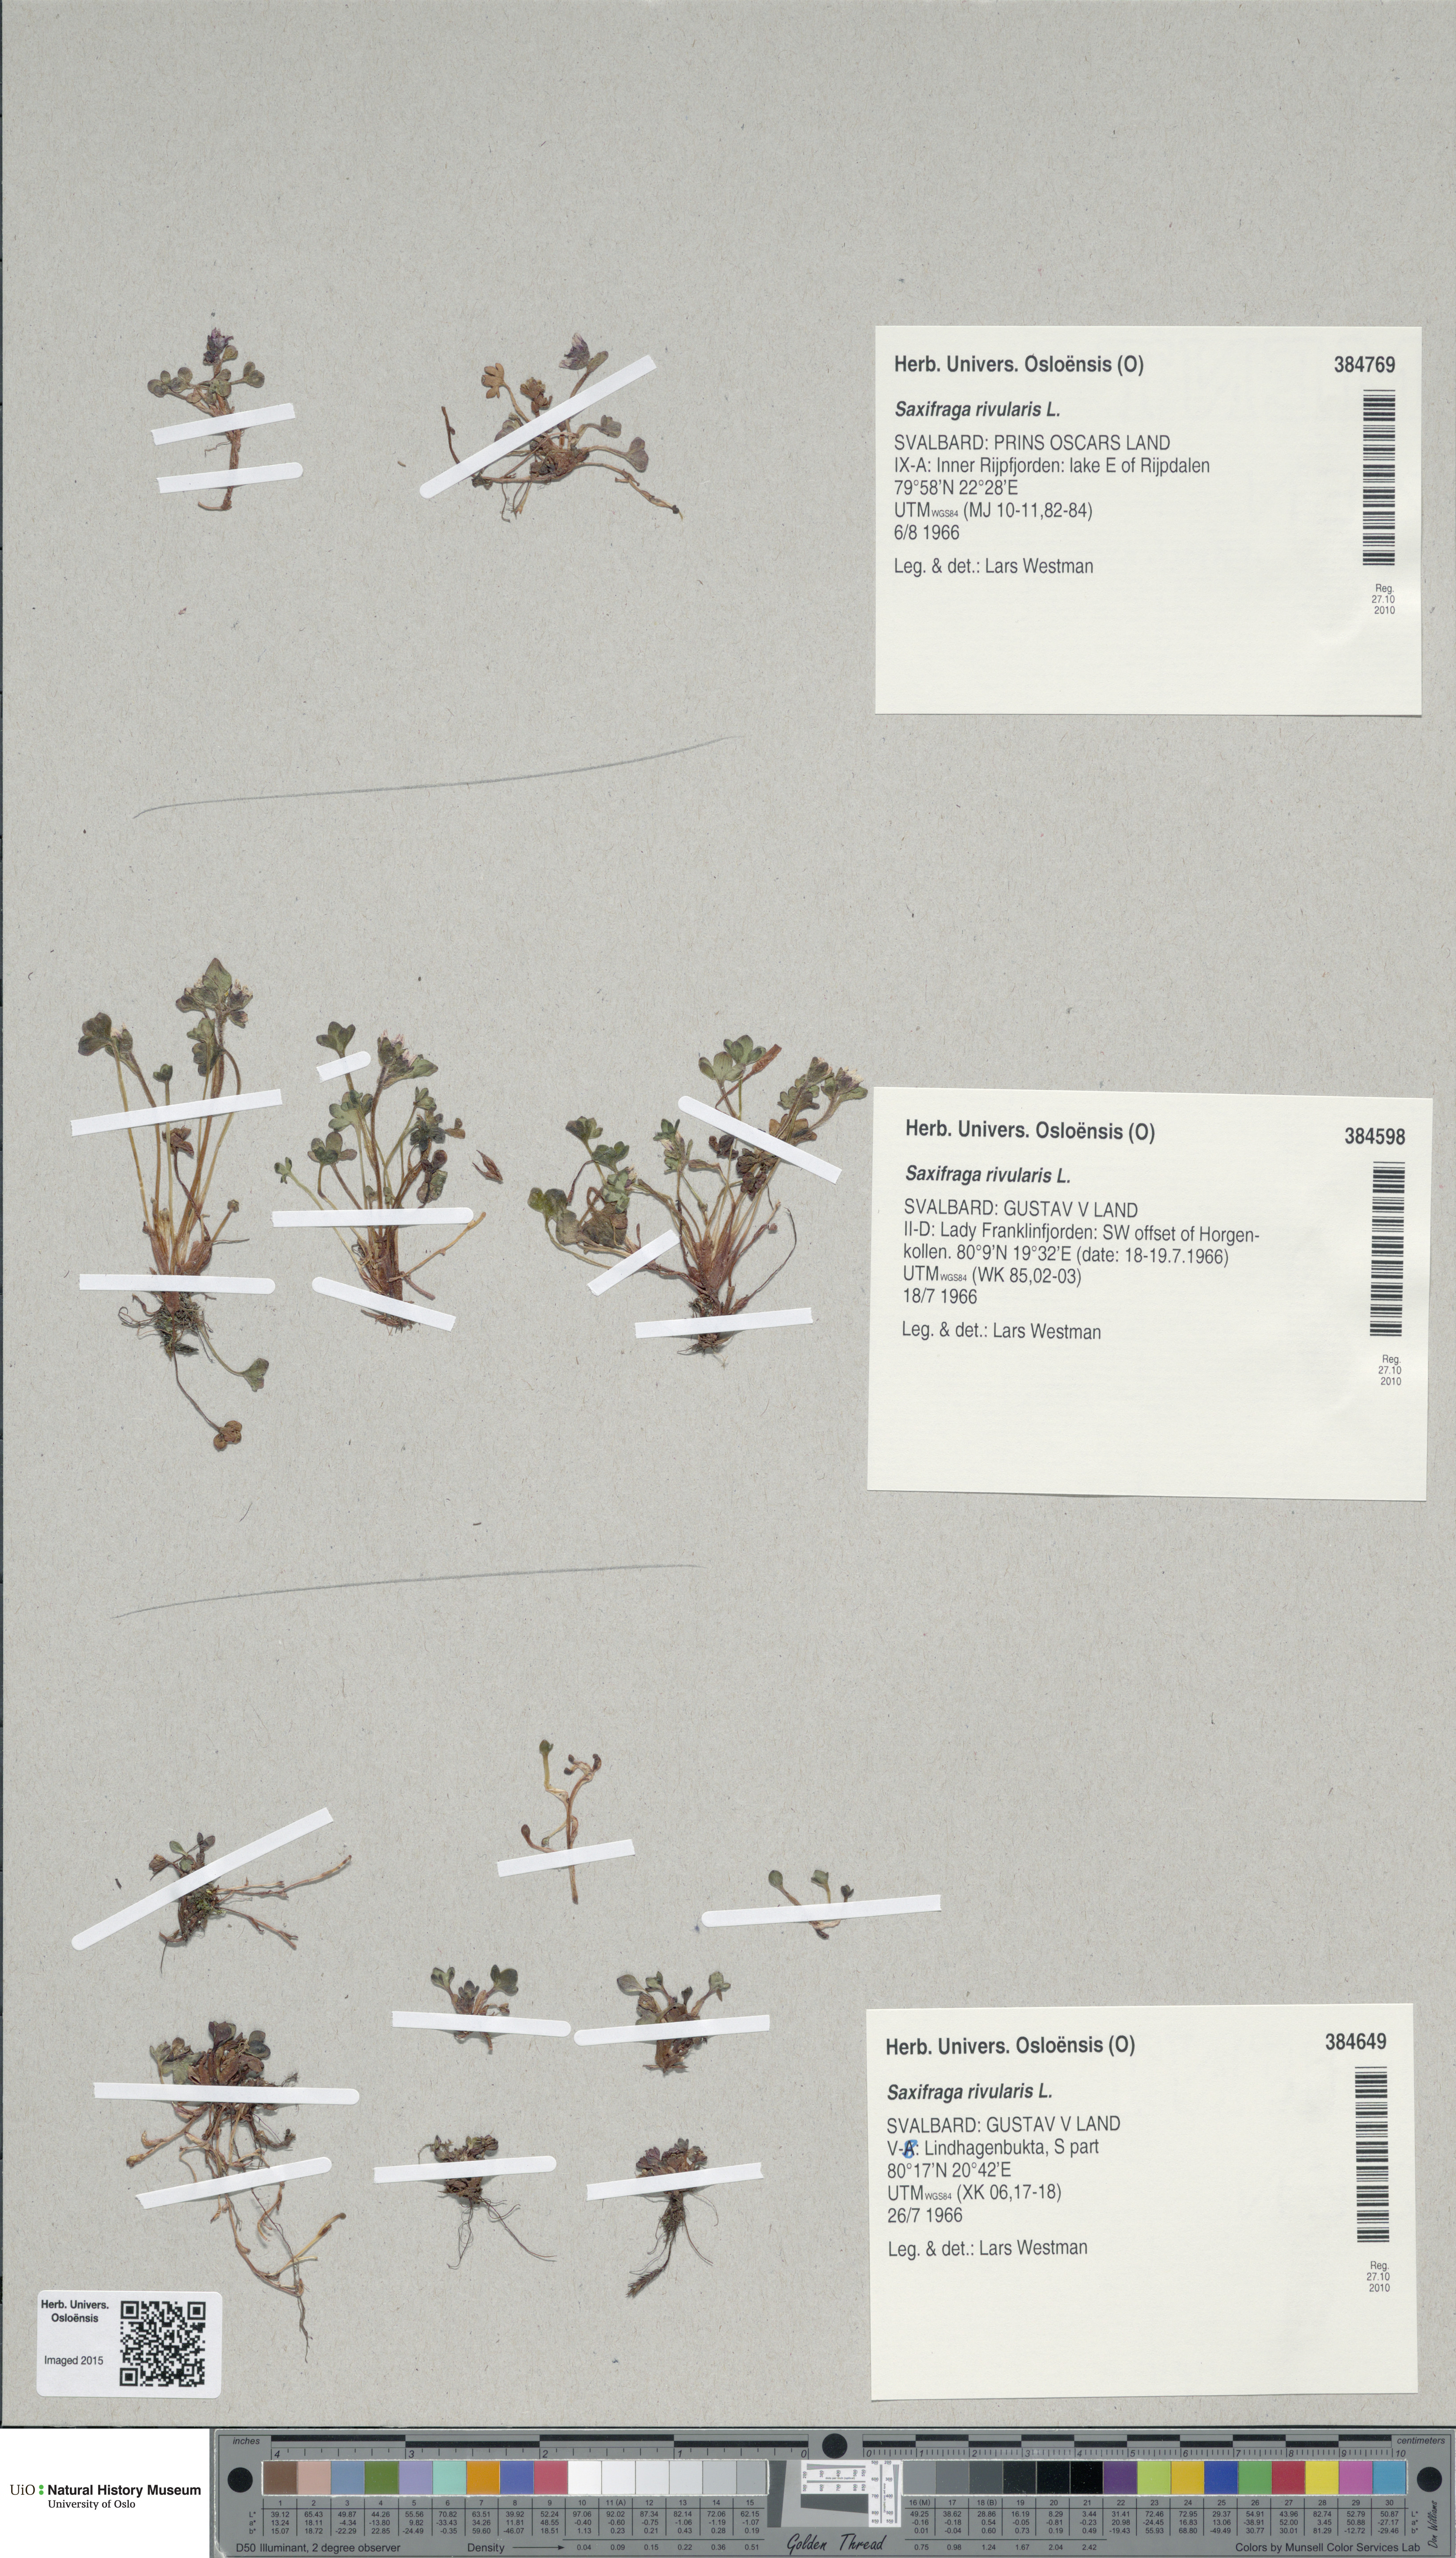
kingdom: Plantae
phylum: Tracheophyta
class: Magnoliopsida
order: Saxifragales
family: Saxifragaceae
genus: Saxifraga
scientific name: Saxifraga rivularis
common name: Highland saxifrage
